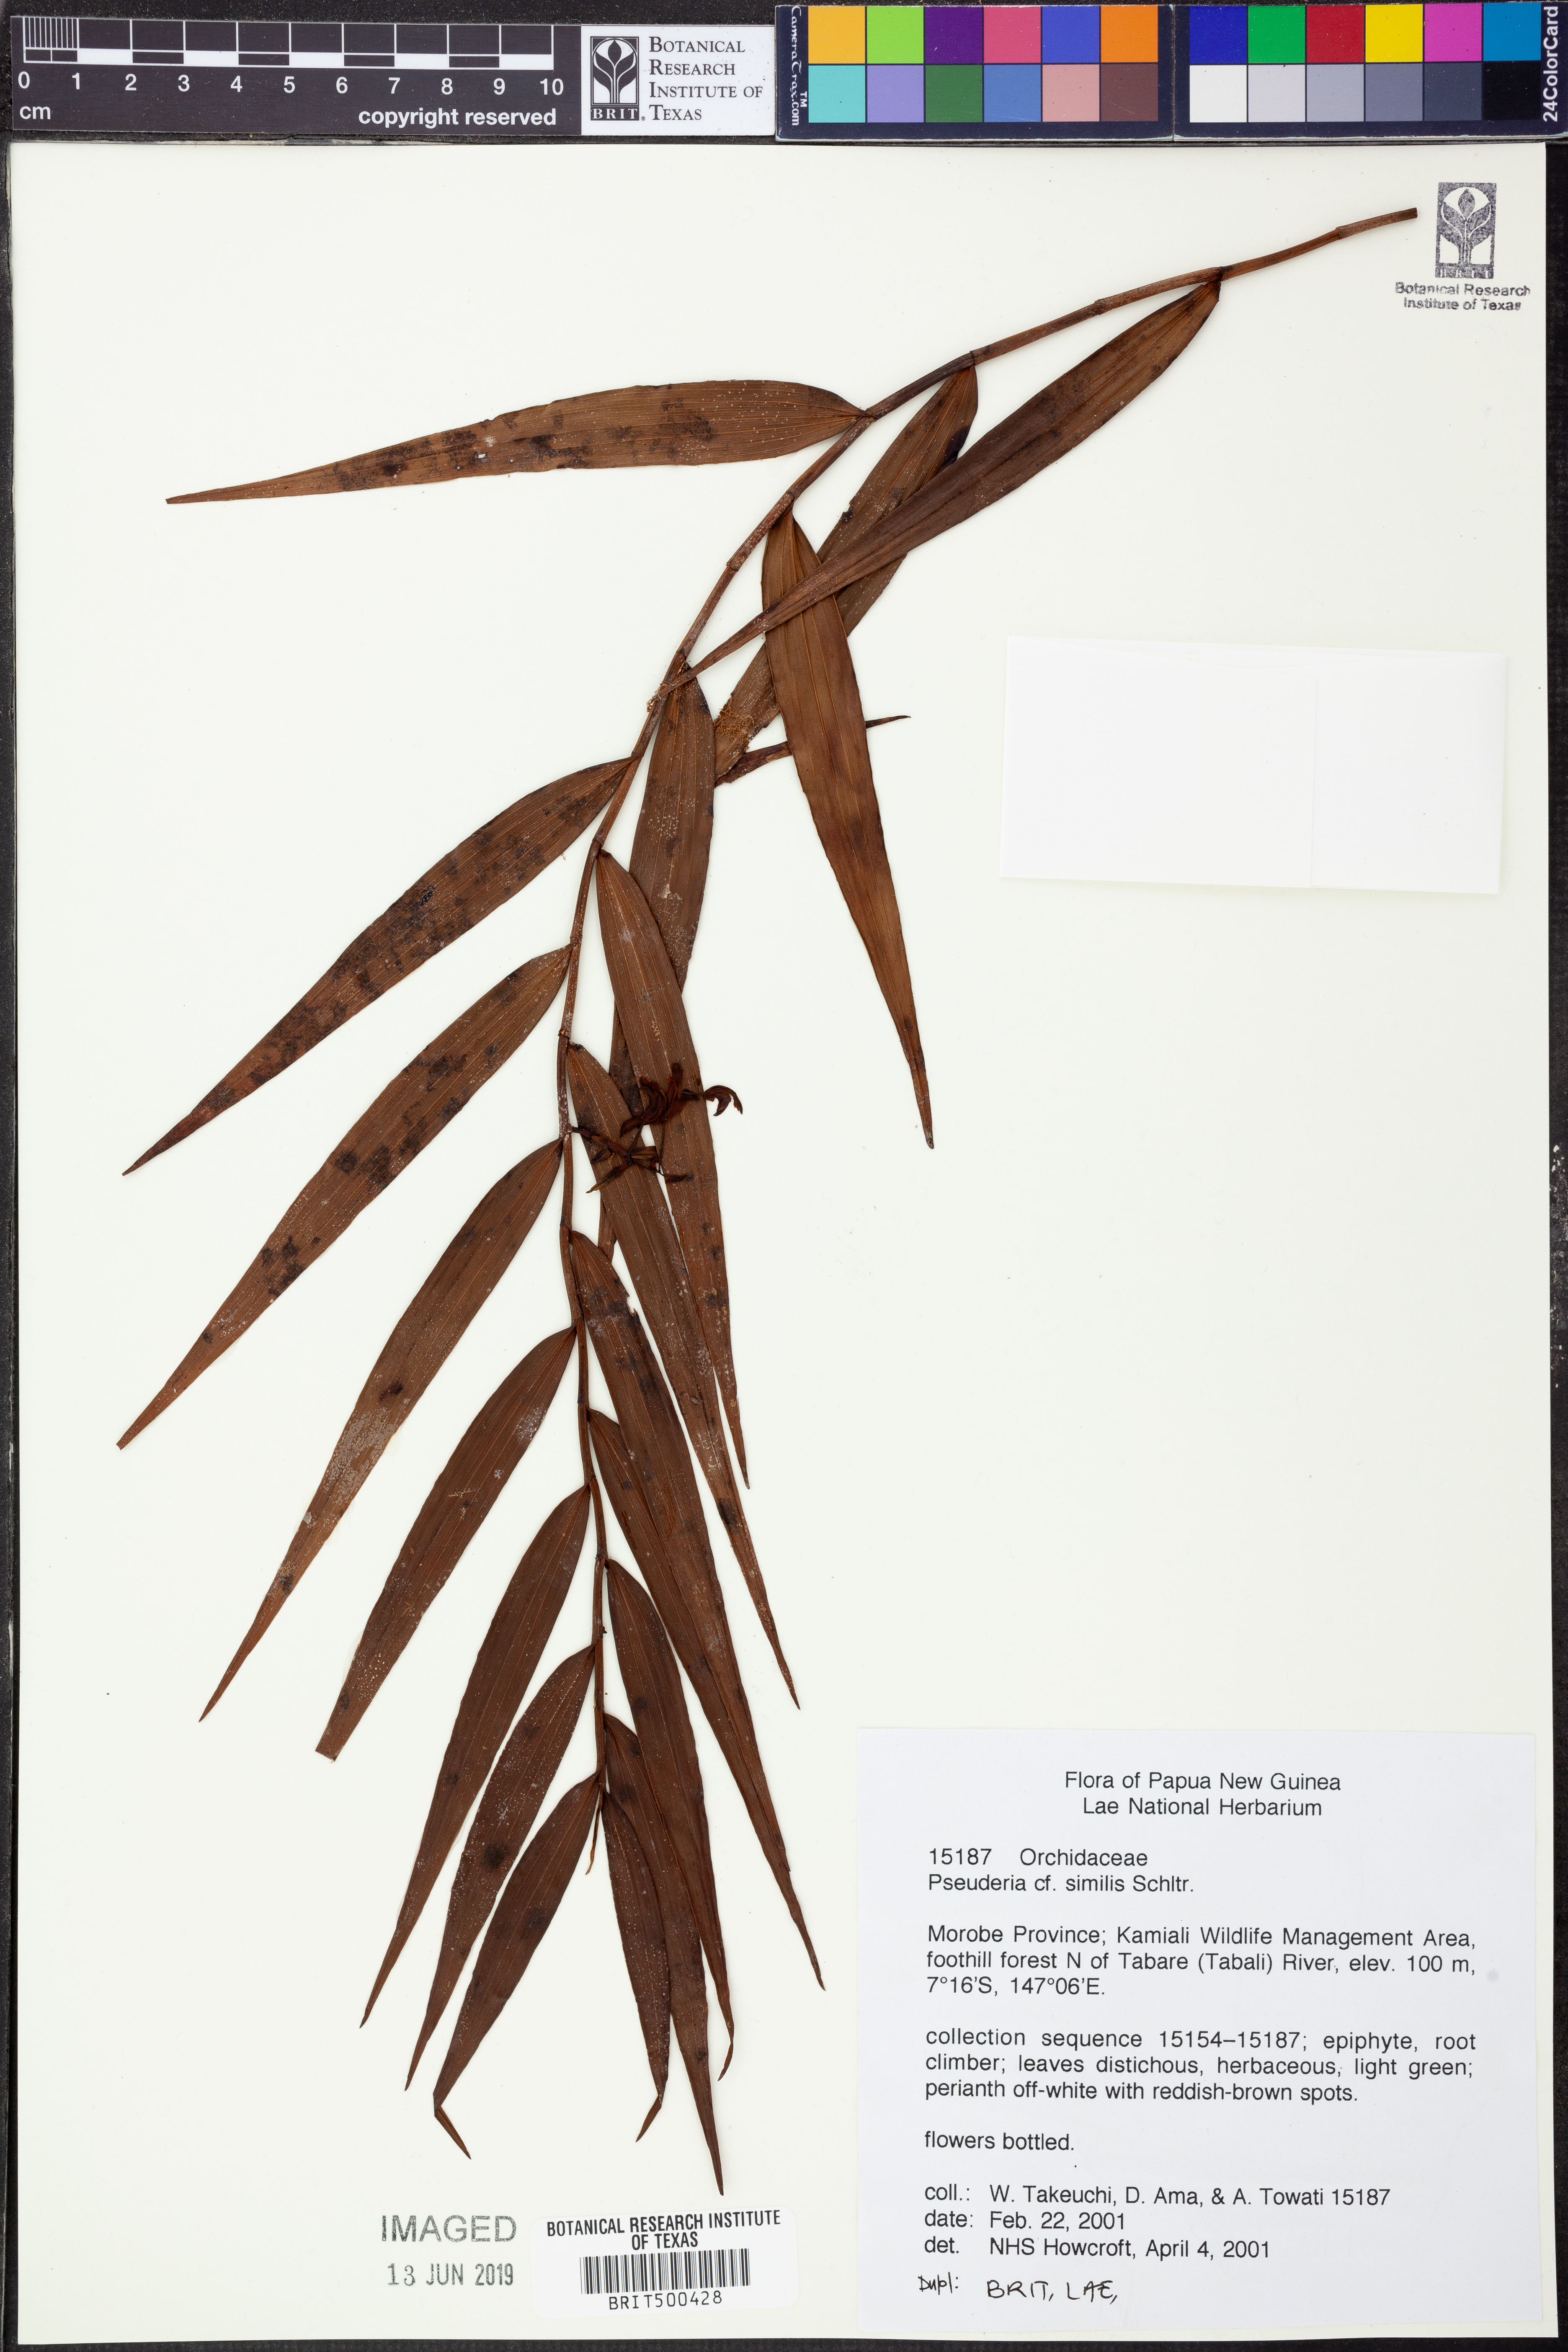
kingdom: Plantae
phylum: Tracheophyta
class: Liliopsida
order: Asparagales
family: Orchidaceae
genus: Pseuderia
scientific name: Pseuderia similis
